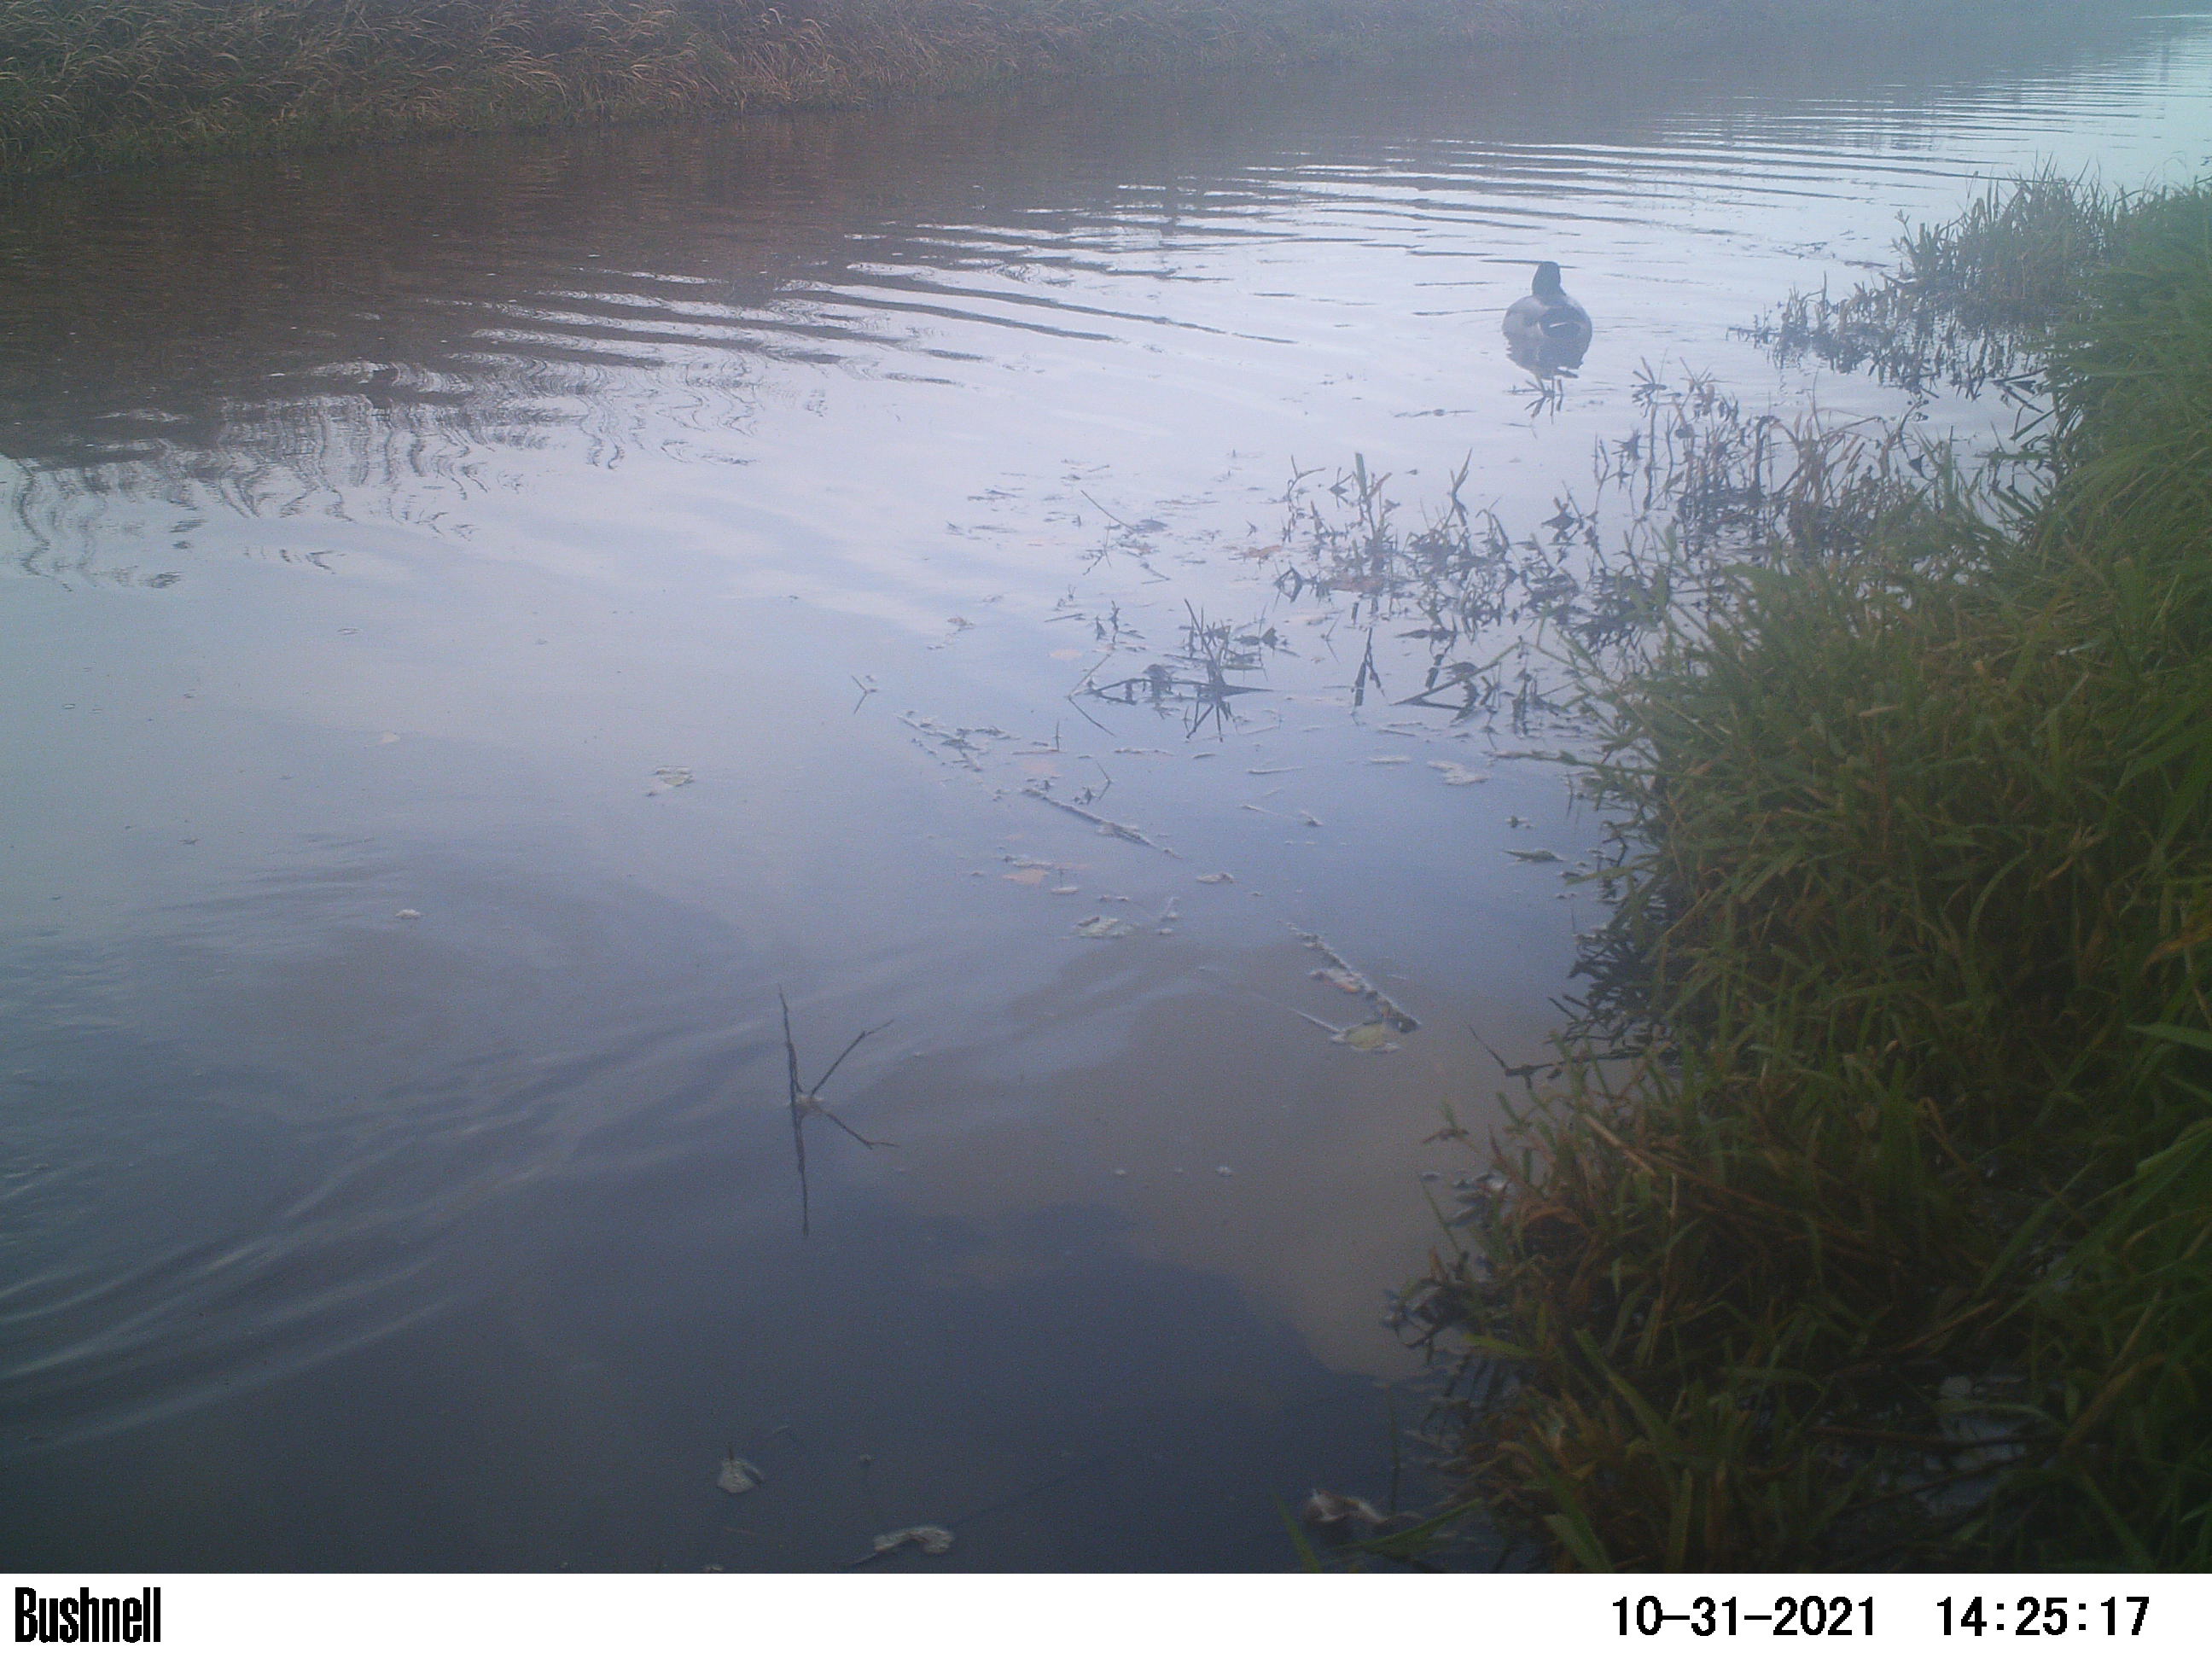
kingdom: Animalia
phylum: Chordata
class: Aves
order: Anseriformes
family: Anatidae
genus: Anas
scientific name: Anas
